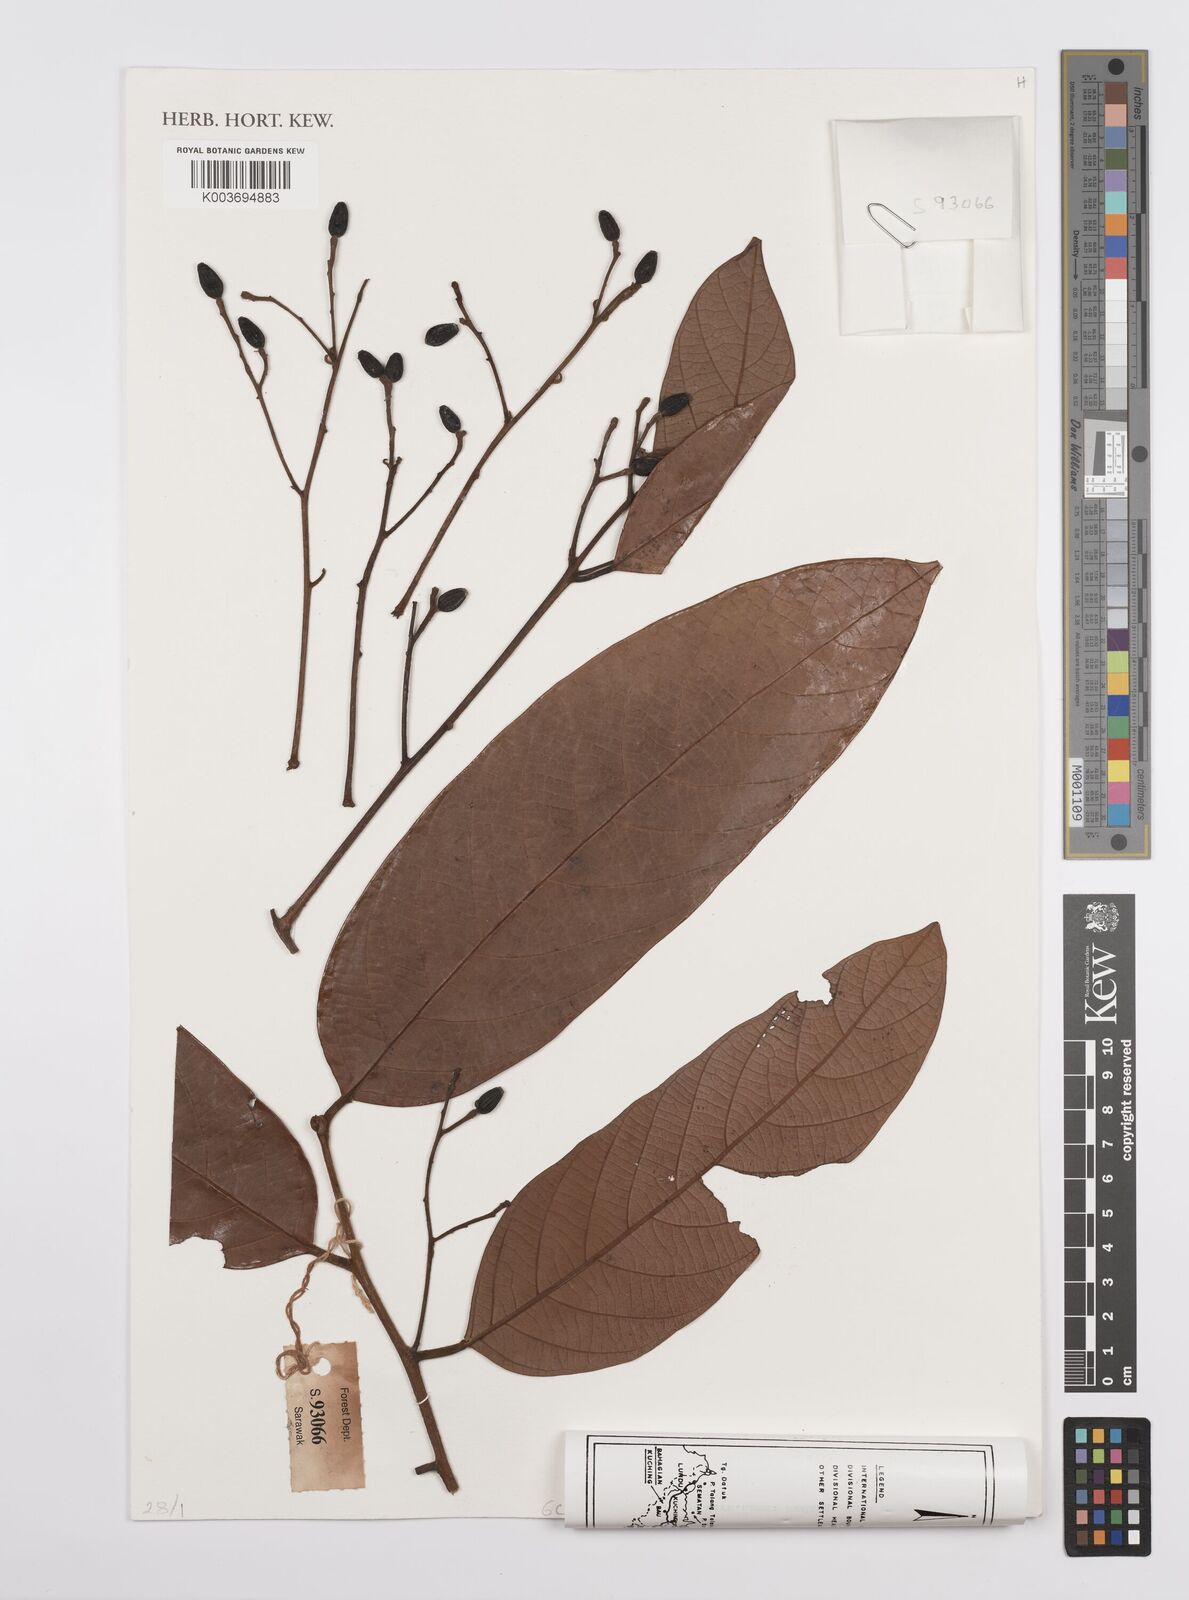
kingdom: Plantae
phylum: Tracheophyta
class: Magnoliopsida
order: Laurales
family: Lauraceae
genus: Cryptocarya
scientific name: Cryptocarya
